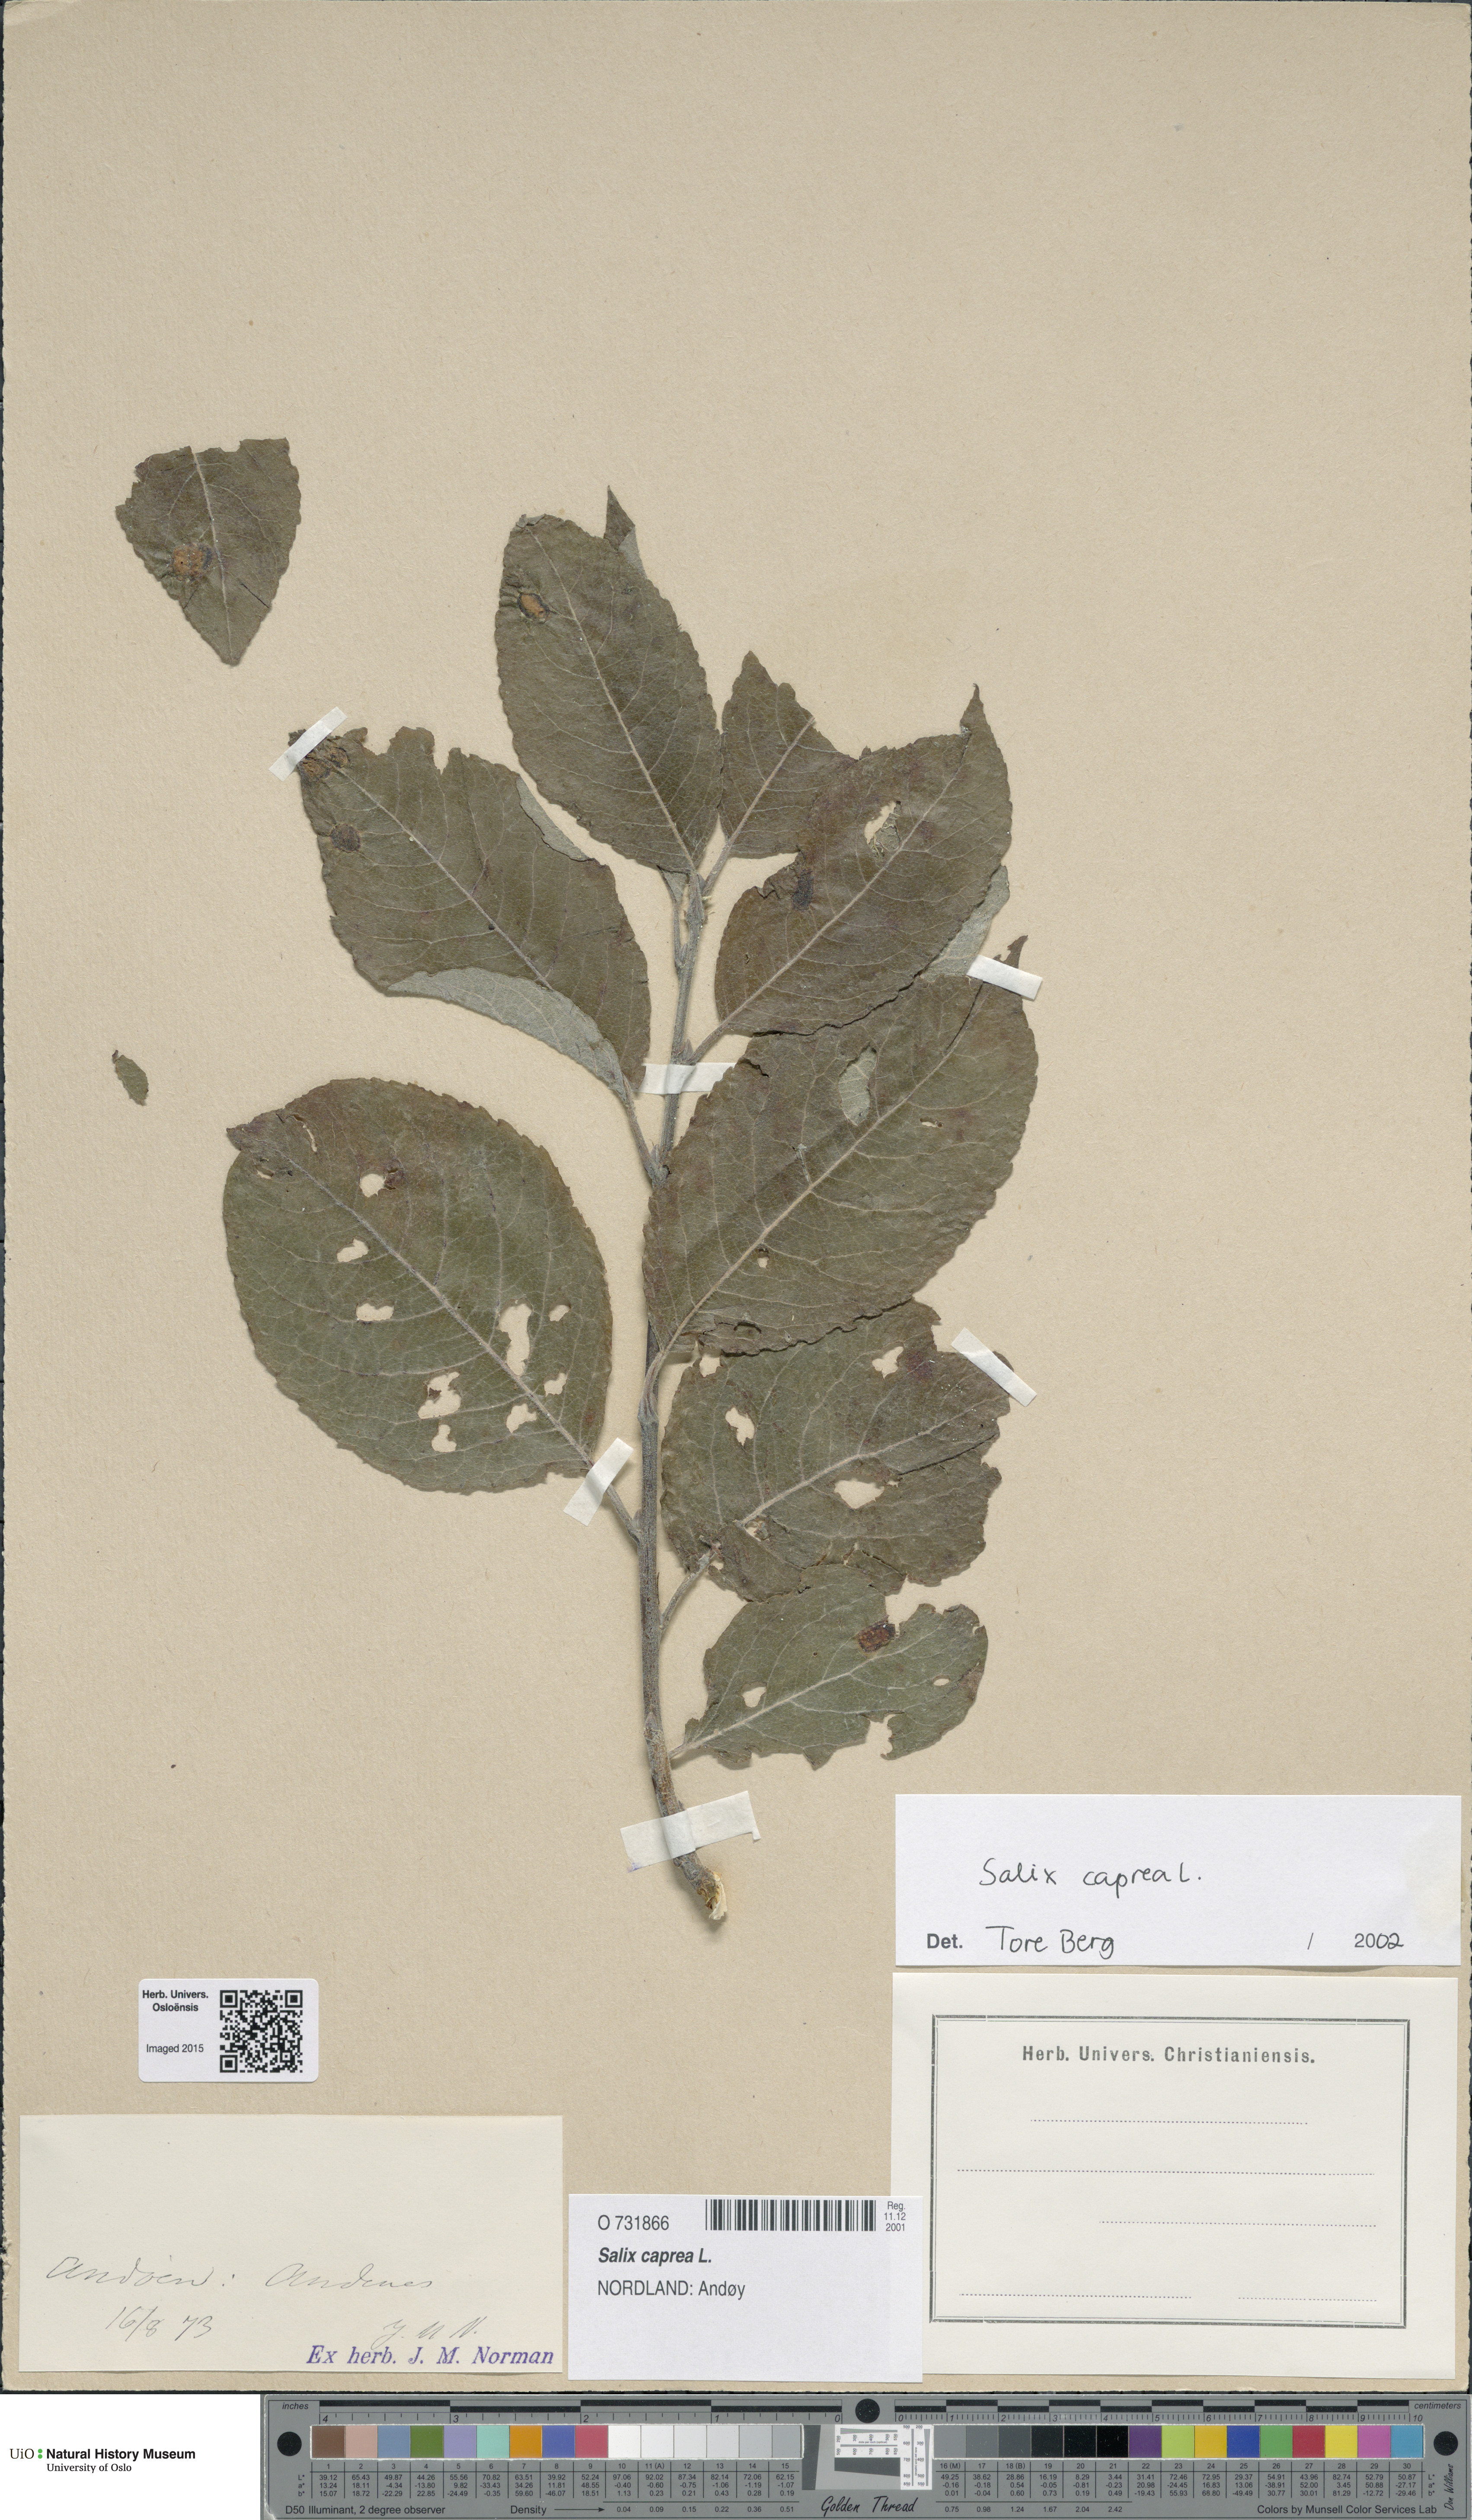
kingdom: Plantae
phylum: Tracheophyta
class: Magnoliopsida
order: Malpighiales
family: Salicaceae
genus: Salix
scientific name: Salix caprea
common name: Goat willow
